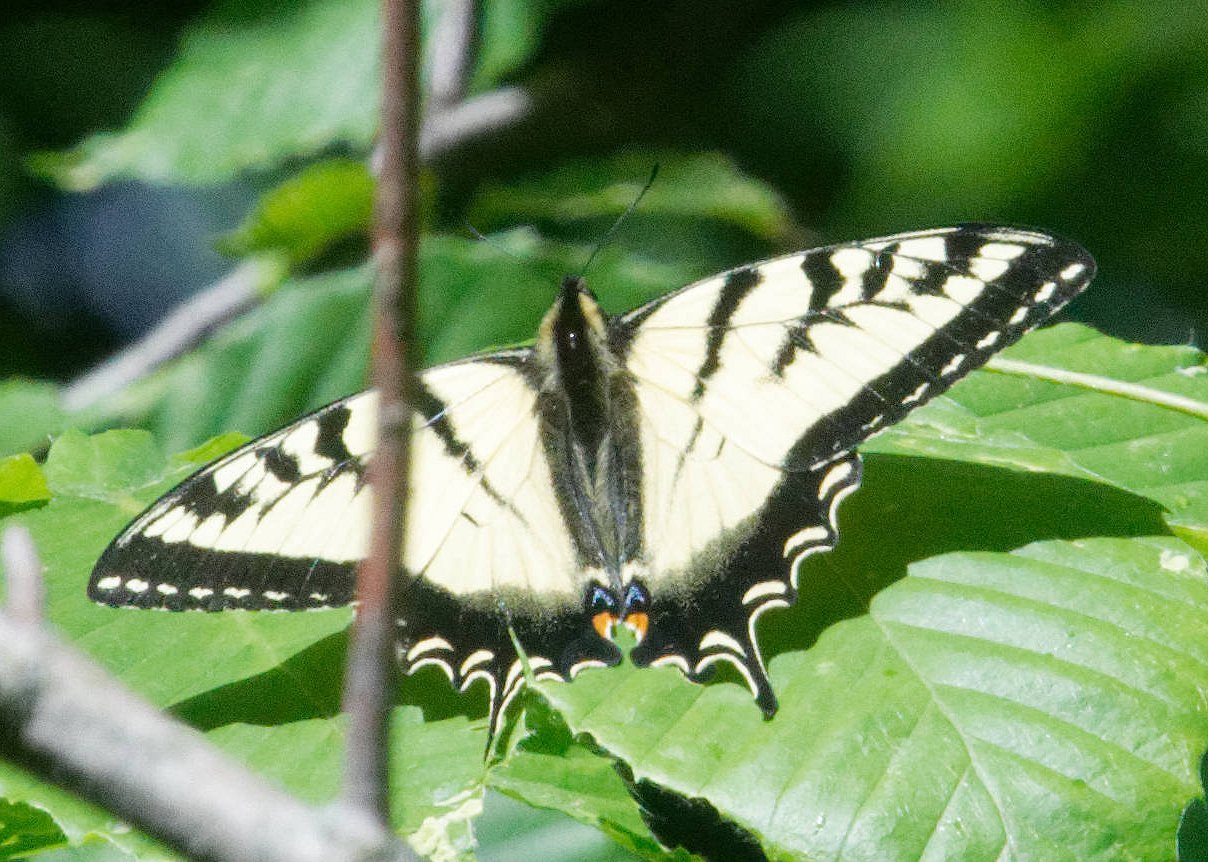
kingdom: Animalia
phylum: Arthropoda
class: Insecta
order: Lepidoptera
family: Papilionidae
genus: Pterourus
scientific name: Pterourus canadensis
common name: Canadian Tiger Swallowtail
